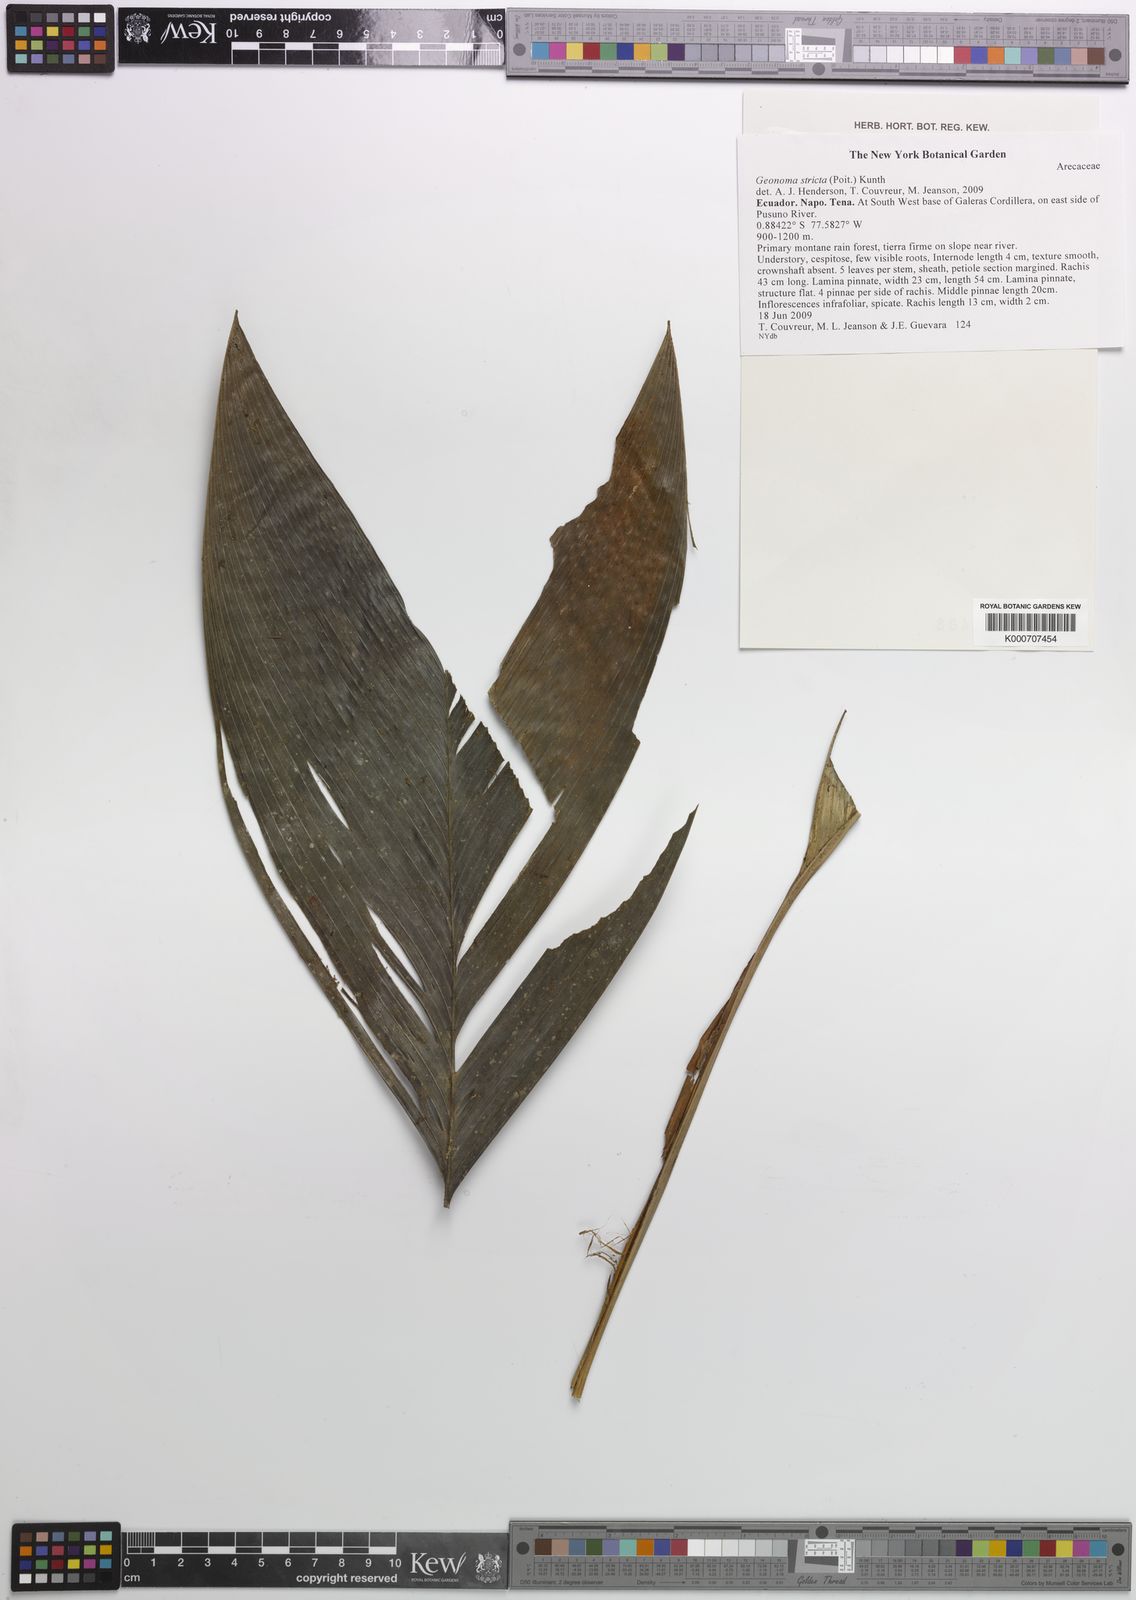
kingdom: Plantae
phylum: Tracheophyta
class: Liliopsida
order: Arecales
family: Arecaceae
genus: Geonoma
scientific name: Geonoma stricta
